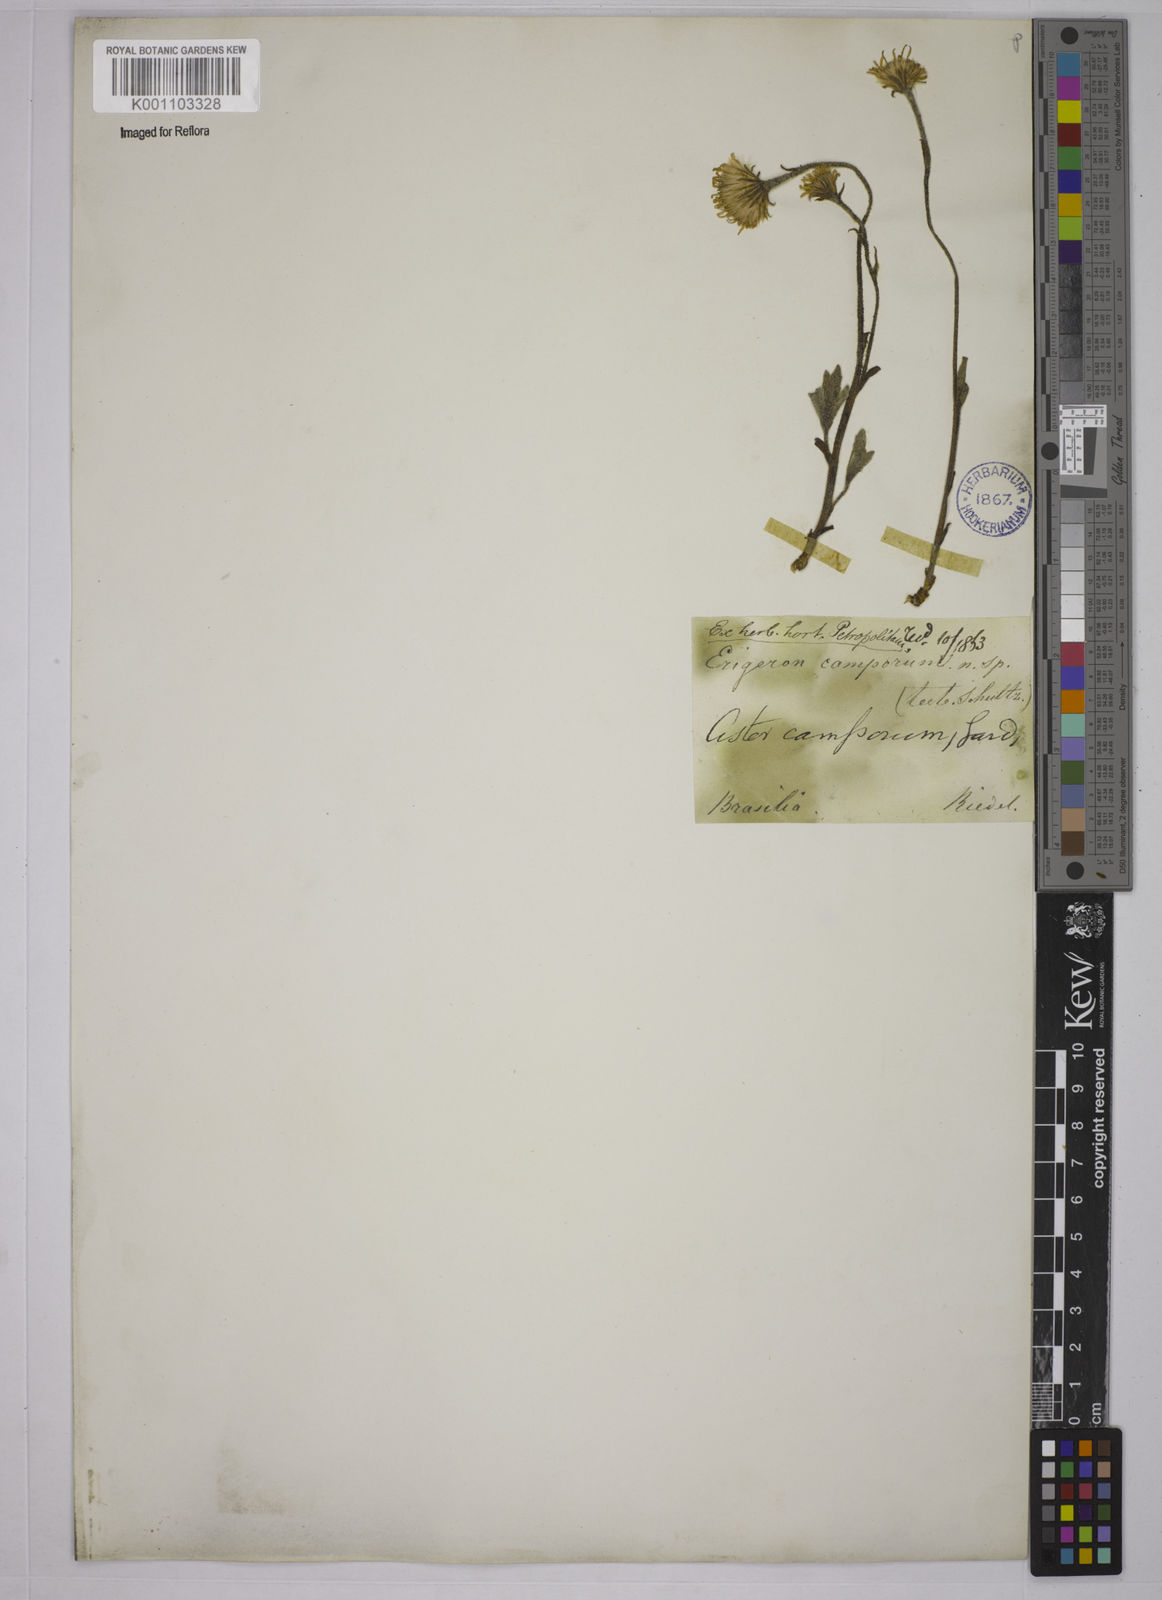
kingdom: Plantae
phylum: Tracheophyta
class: Magnoliopsida
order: Asterales
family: Asteraceae
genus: Inulopsis
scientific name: Inulopsis camporum
